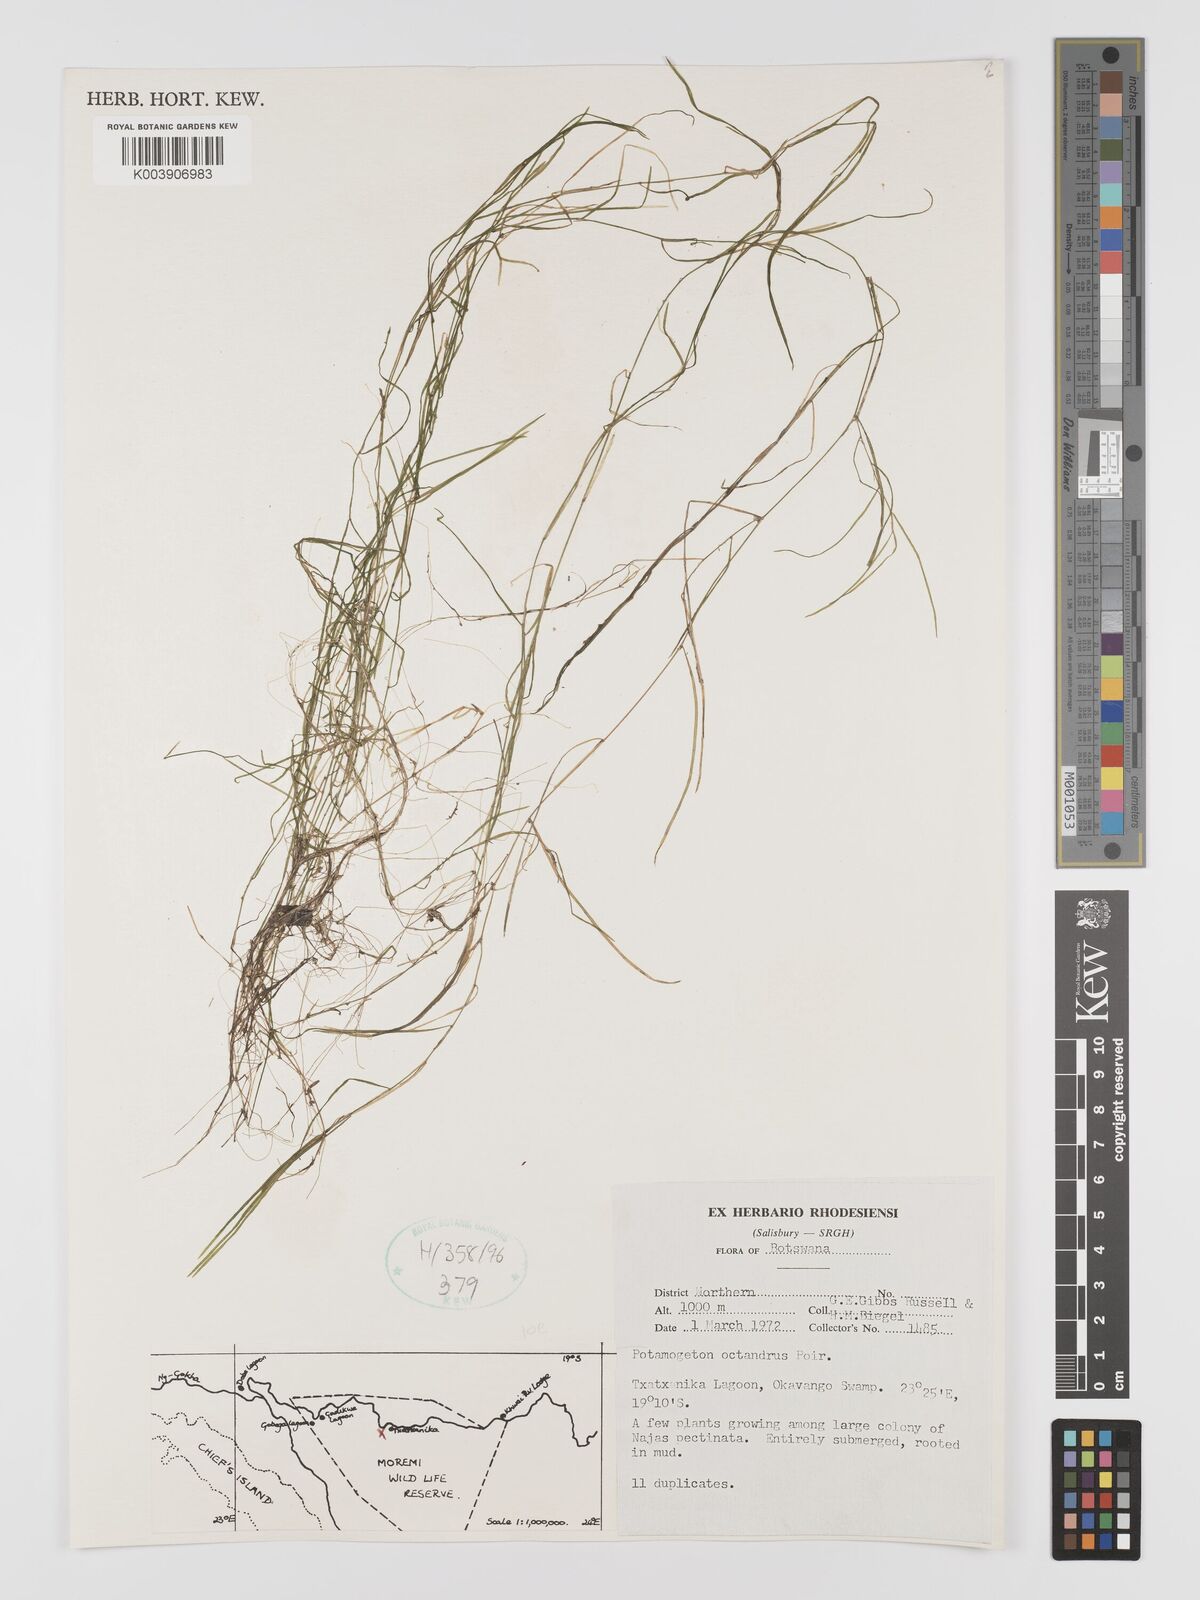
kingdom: Plantae
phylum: Tracheophyta
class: Liliopsida
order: Alismatales
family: Potamogetonaceae
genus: Potamogeton
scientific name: Potamogeton octandrus
